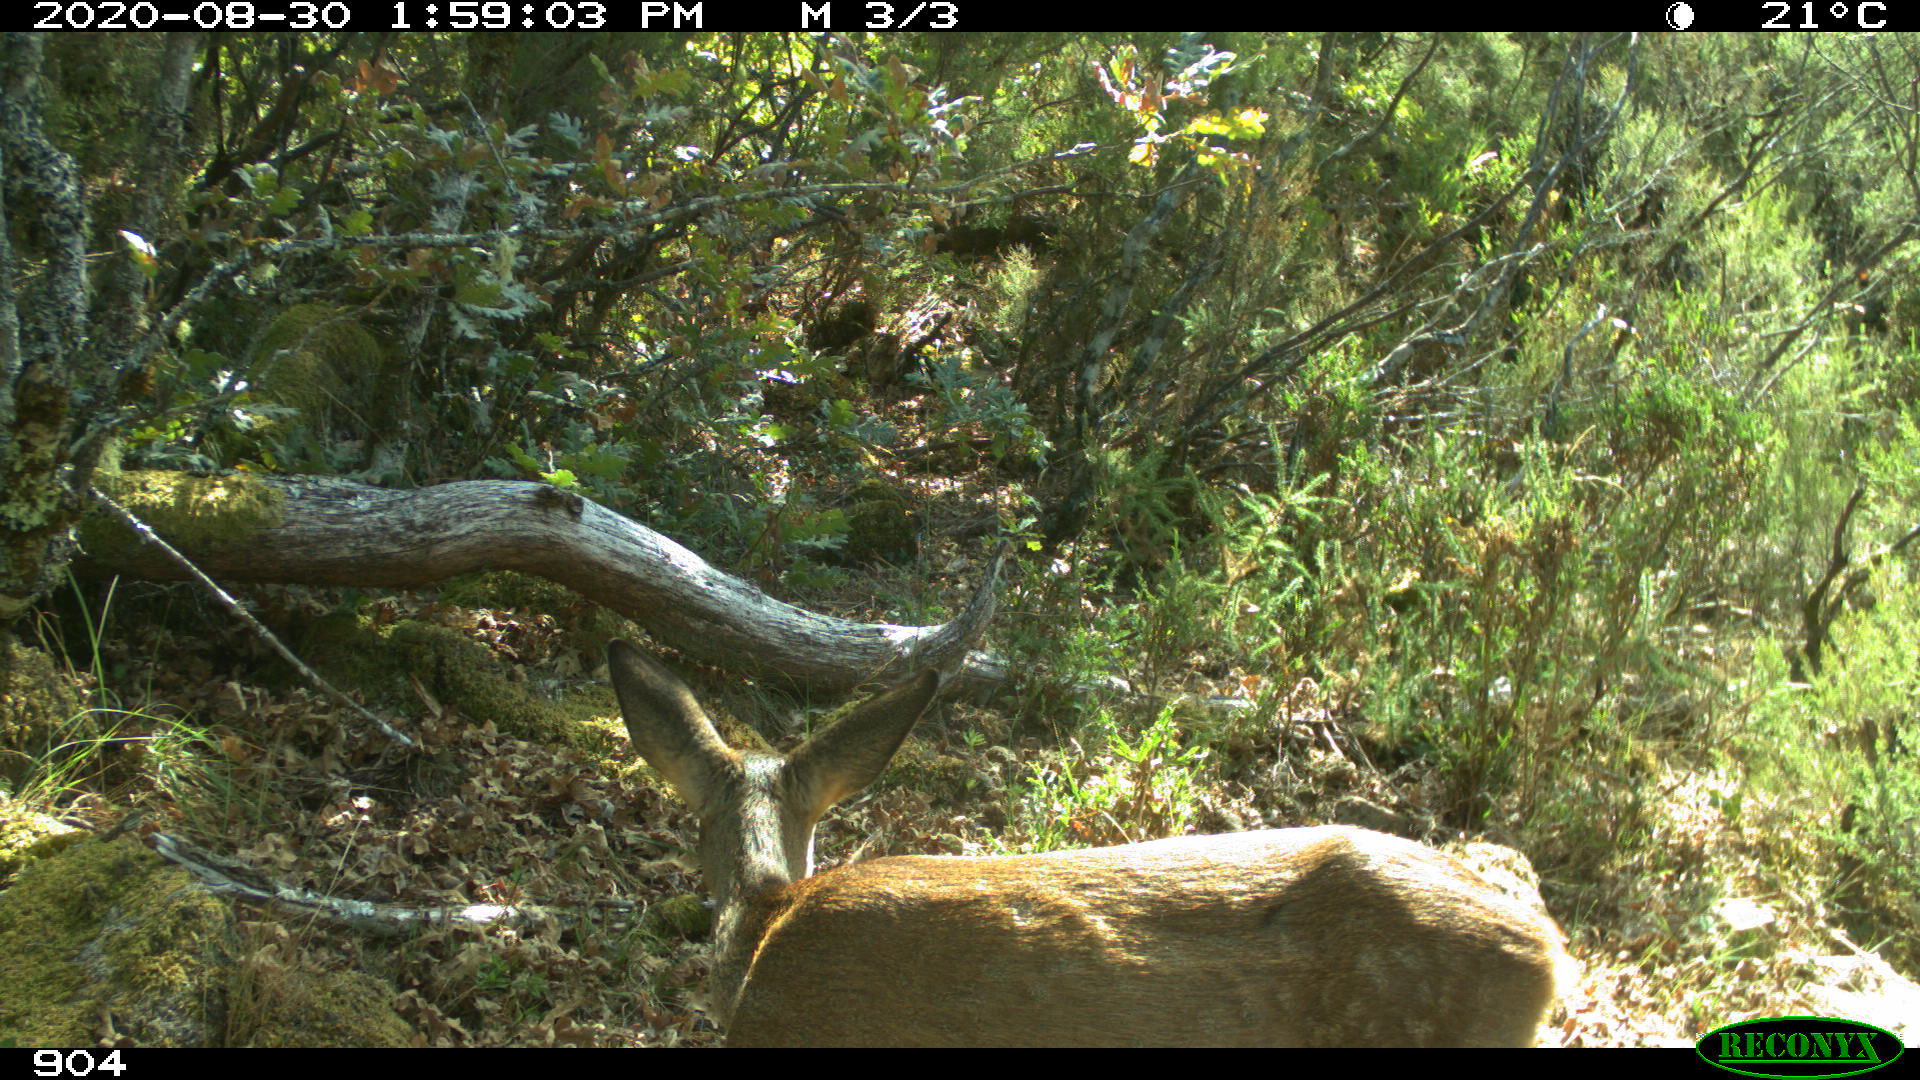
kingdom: Animalia
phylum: Chordata
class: Mammalia
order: Artiodactyla
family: Cervidae
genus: Capreolus
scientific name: Capreolus capreolus
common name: Western roe deer
